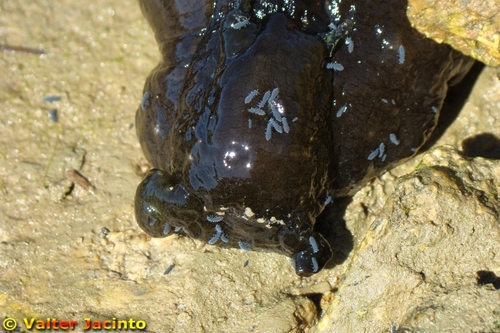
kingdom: Animalia
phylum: Mollusca
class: Gastropoda
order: Aplysiida
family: Aplysiidae
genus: Aplysia
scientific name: Aplysia fasciata
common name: Banded sea hare
